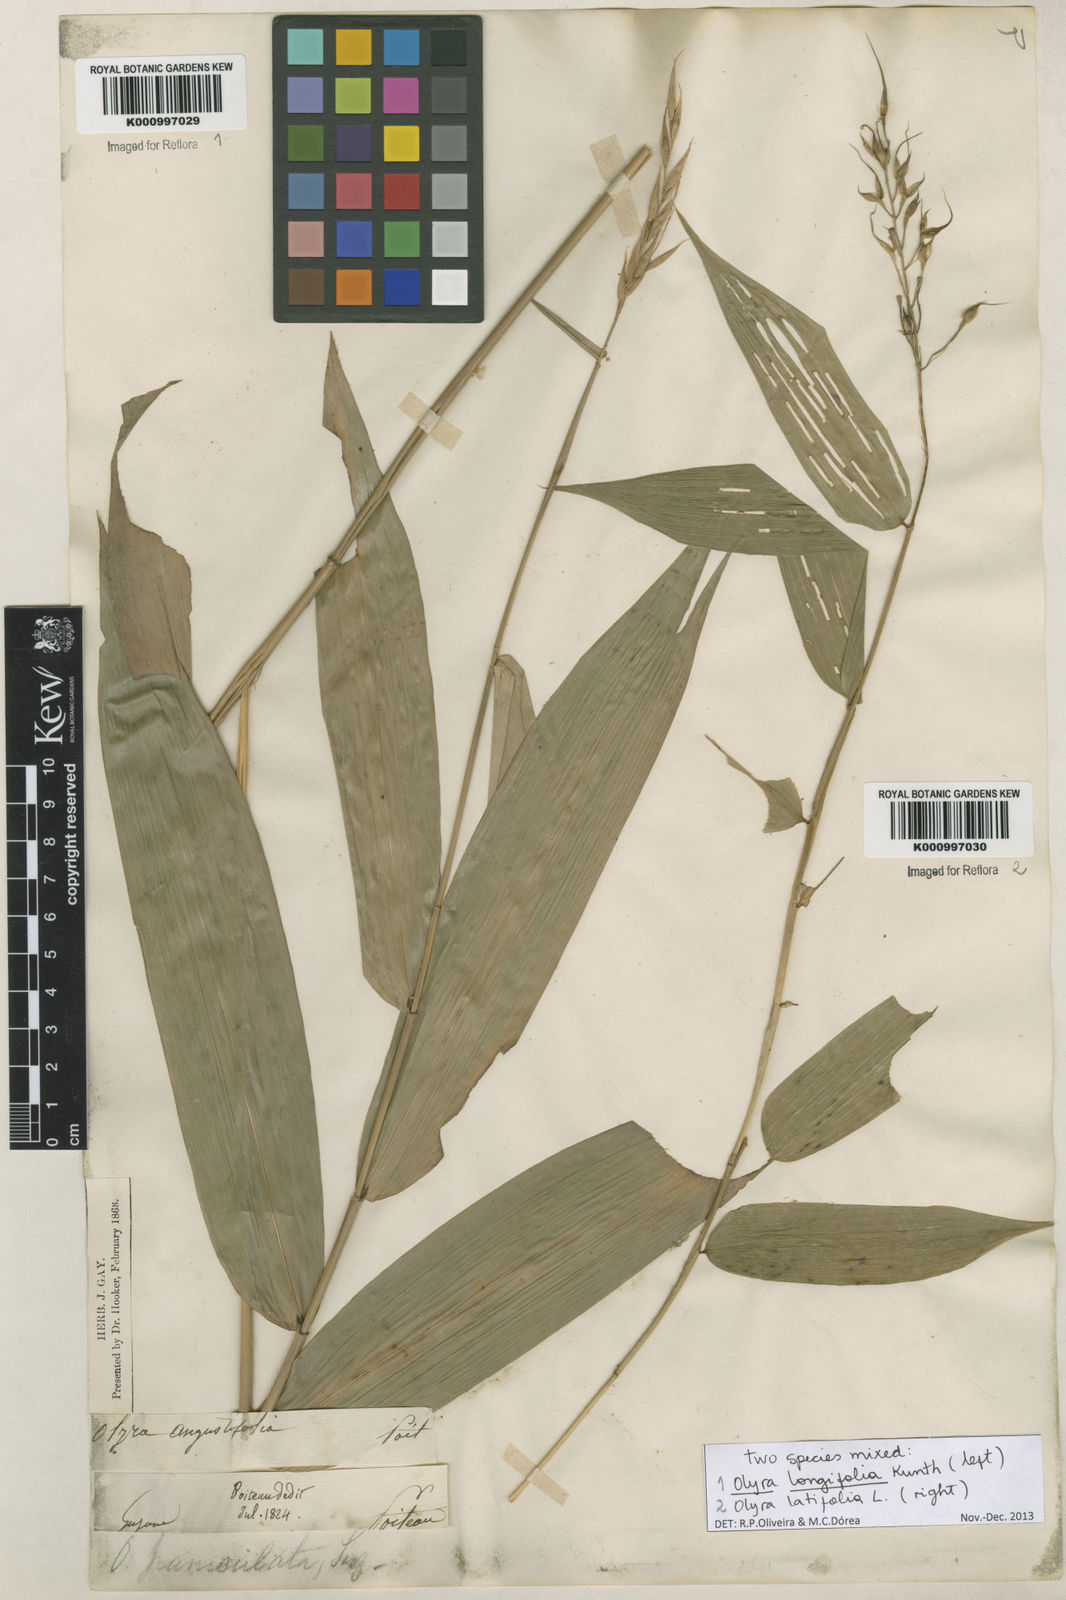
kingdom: Plantae
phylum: Tracheophyta
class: Liliopsida
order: Poales
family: Poaceae
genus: Olyra
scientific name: Olyra longifolia
